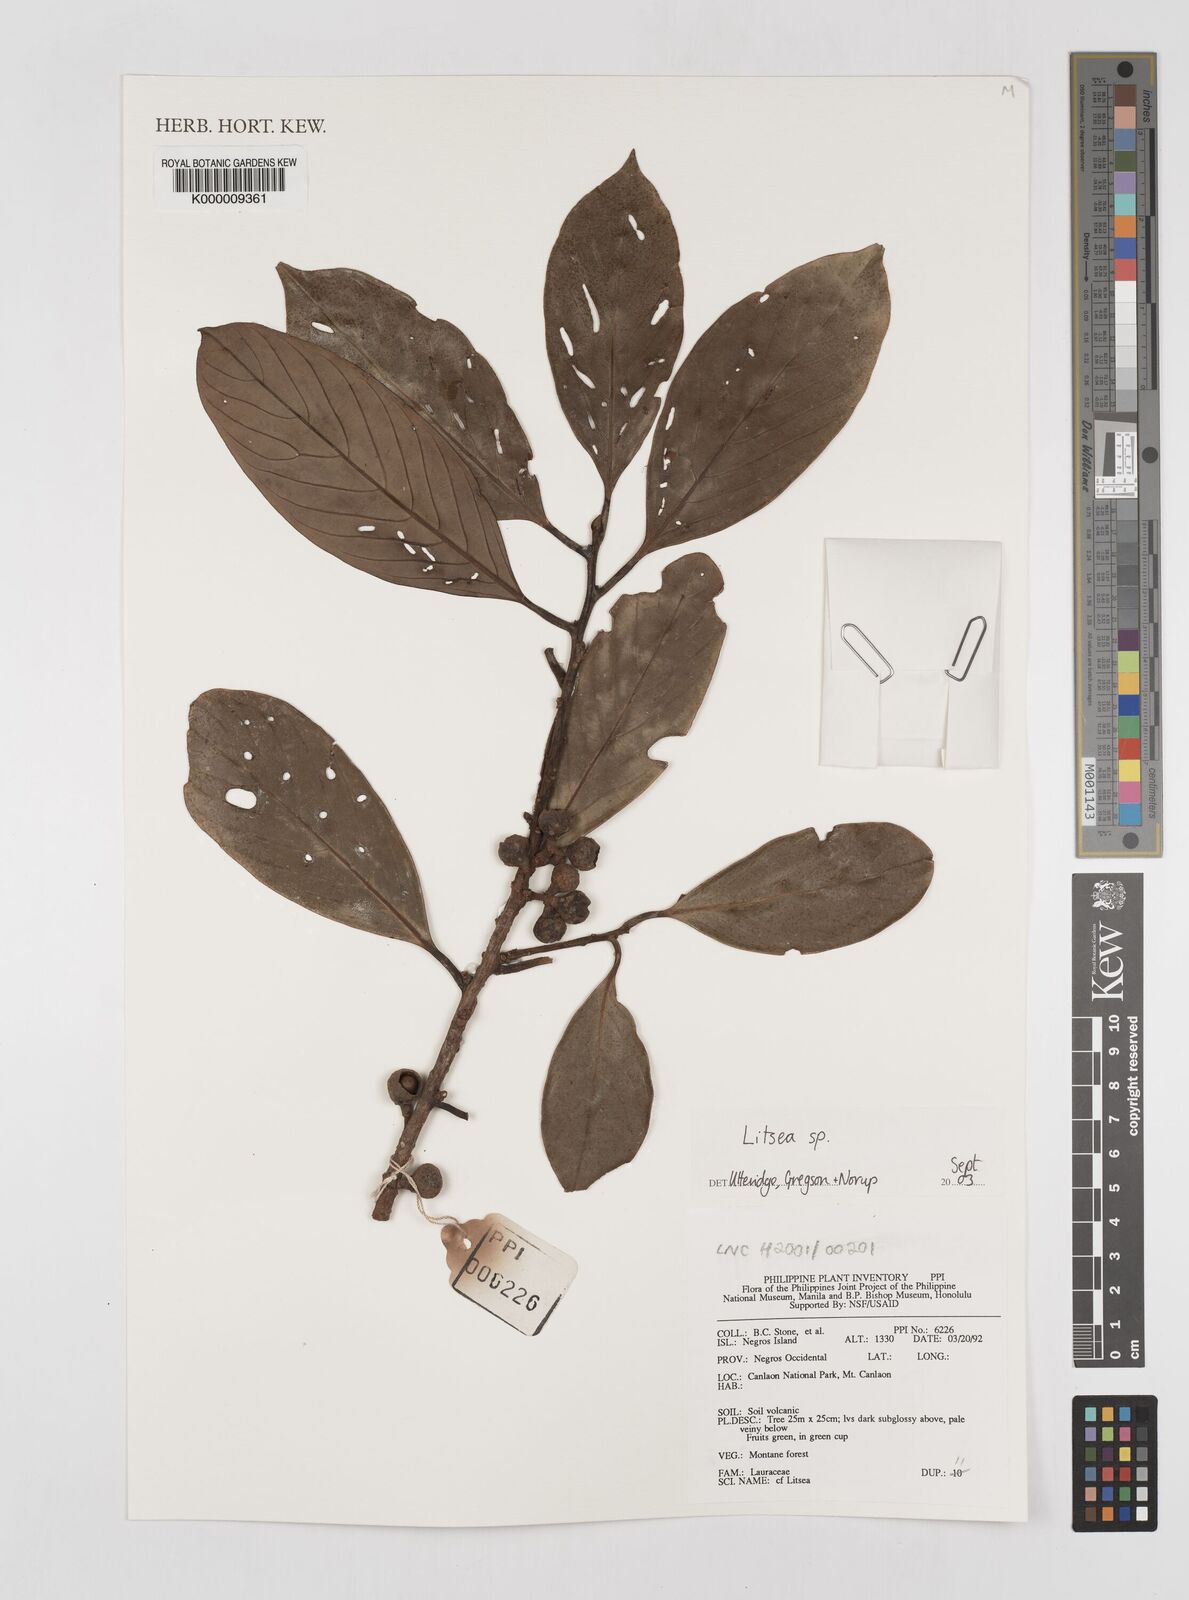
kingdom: Plantae
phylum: Tracheophyta
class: Magnoliopsida
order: Laurales
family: Lauraceae
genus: Litsea
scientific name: Litsea
